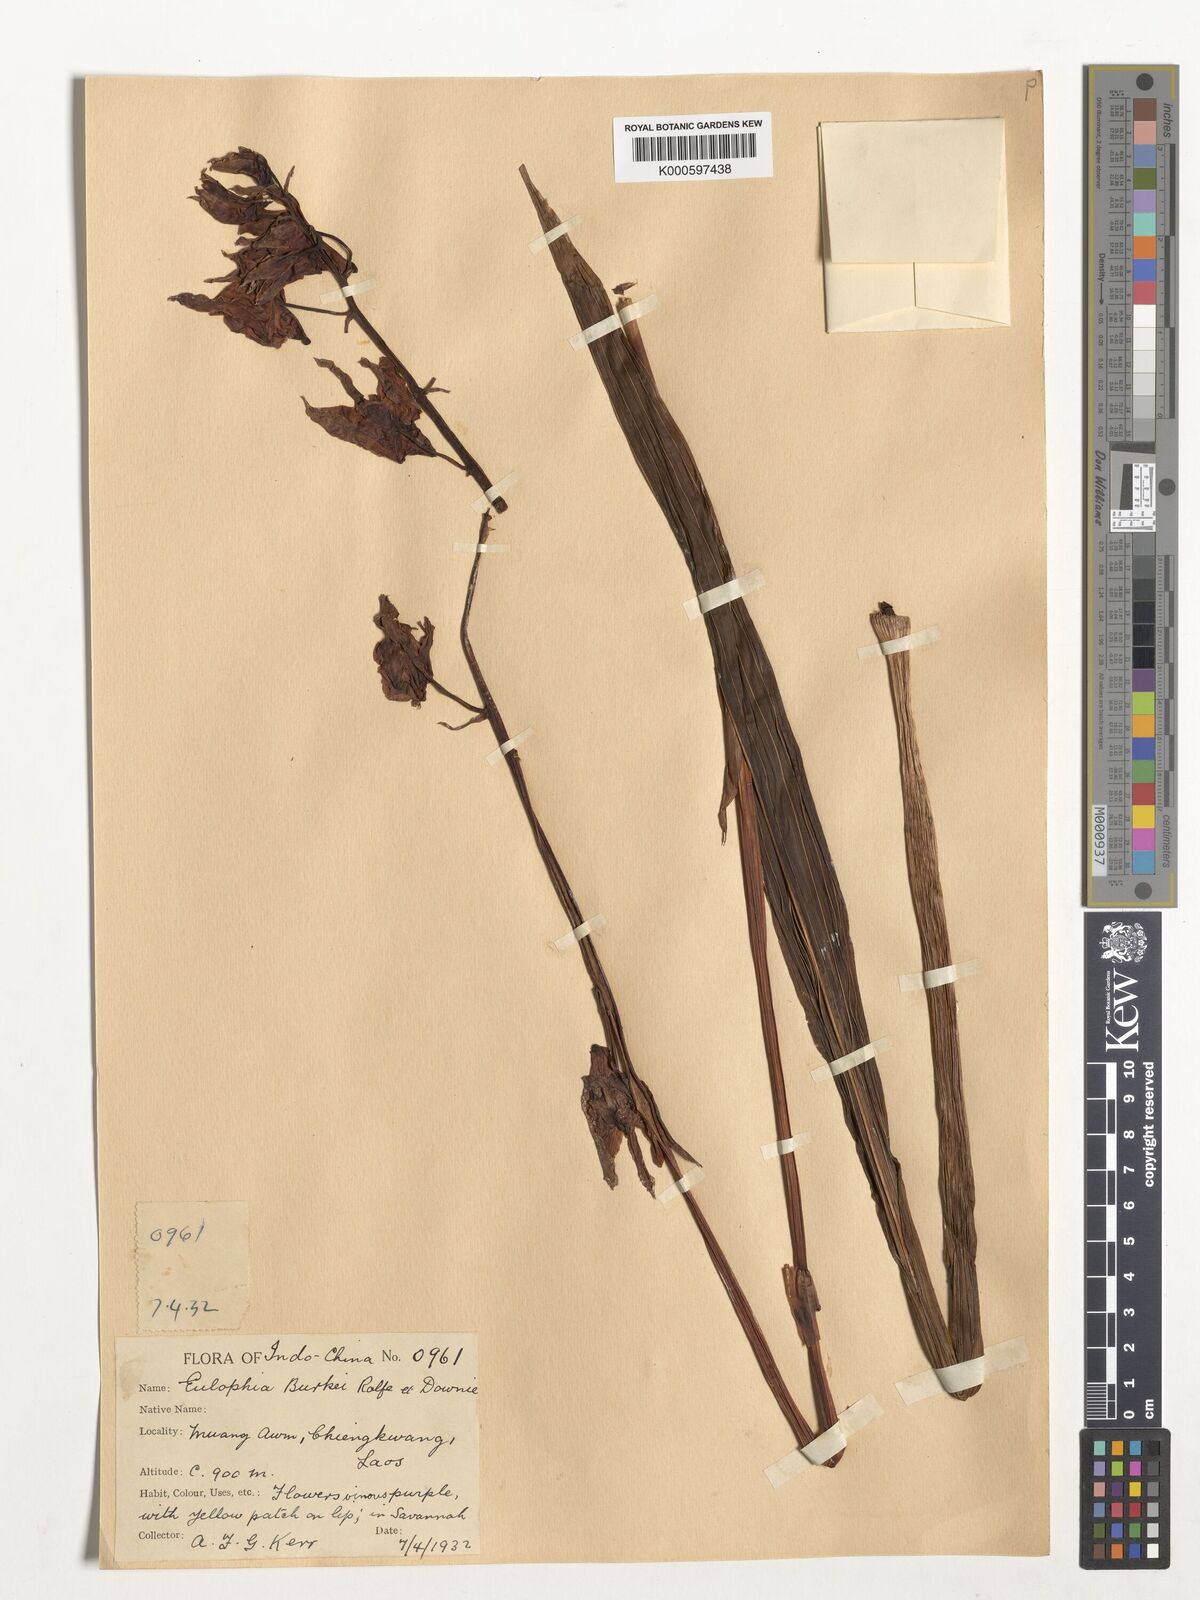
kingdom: Plantae
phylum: Tracheophyta
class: Liliopsida
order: Asparagales
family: Orchidaceae
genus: Eulophia
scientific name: Eulophia nuda
